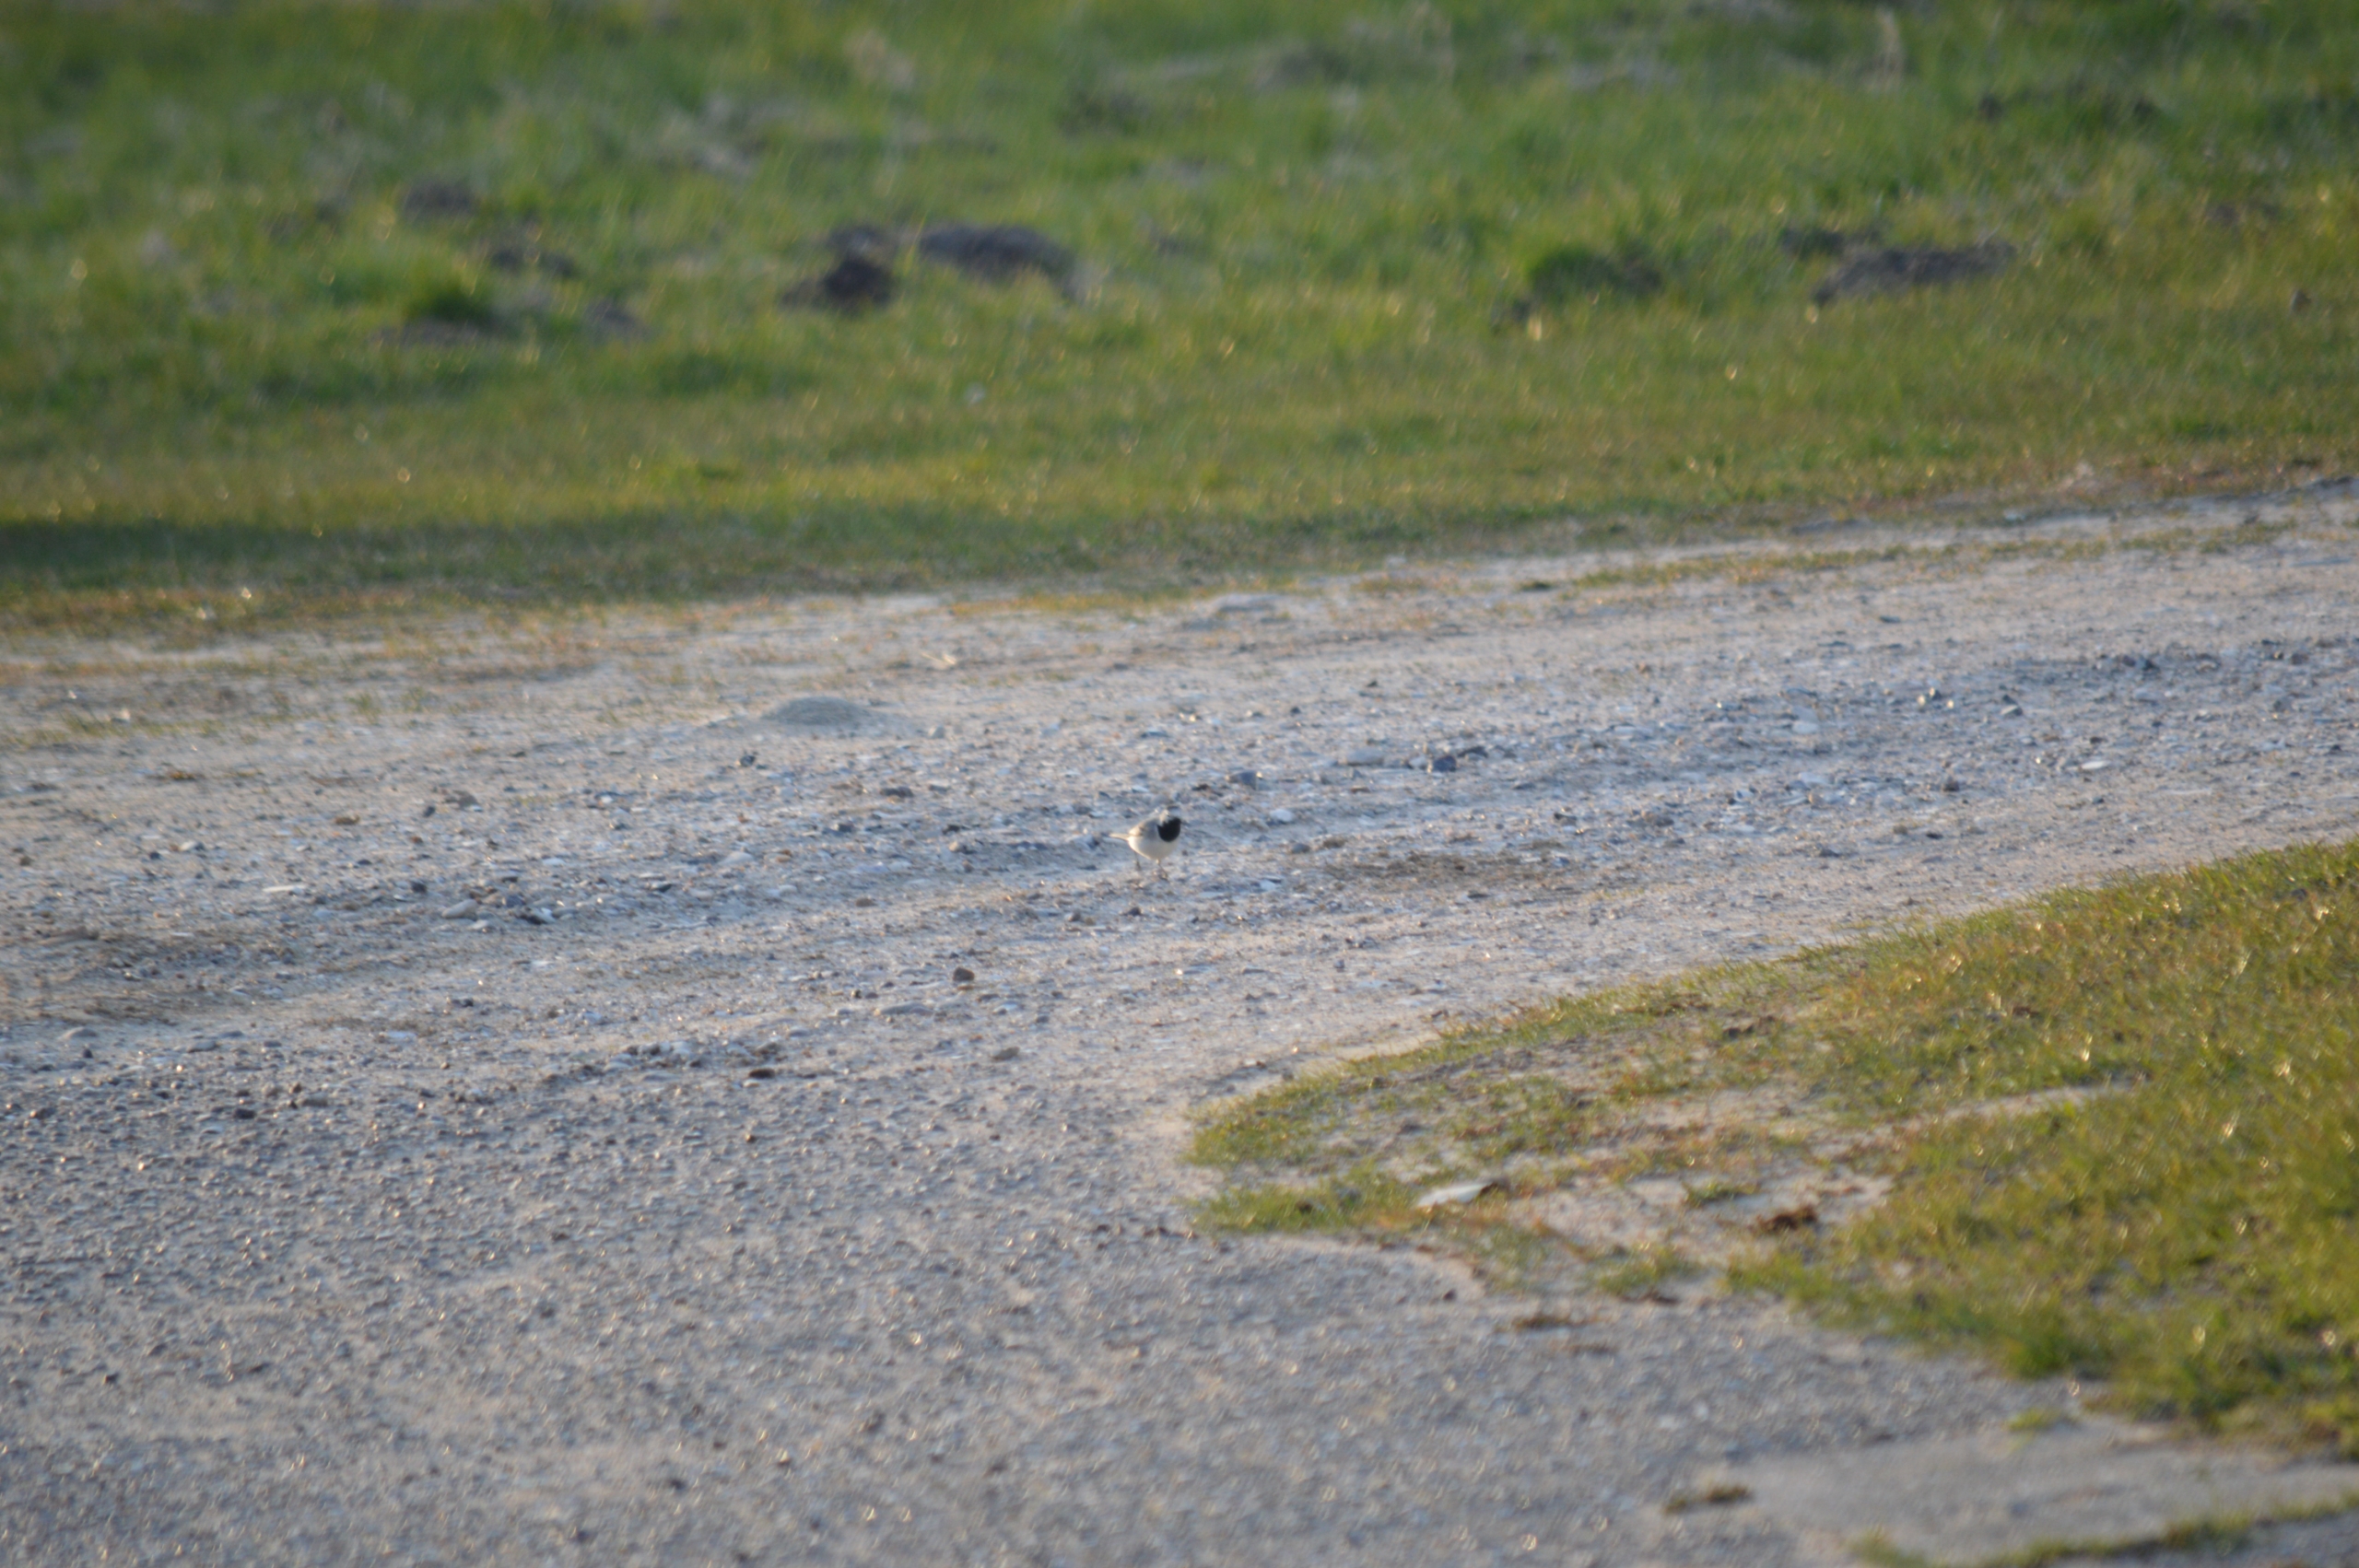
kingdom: Animalia
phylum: Chordata
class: Aves
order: Passeriformes
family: Motacillidae
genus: Motacilla
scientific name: Motacilla alba
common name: Hvid vipstjert
